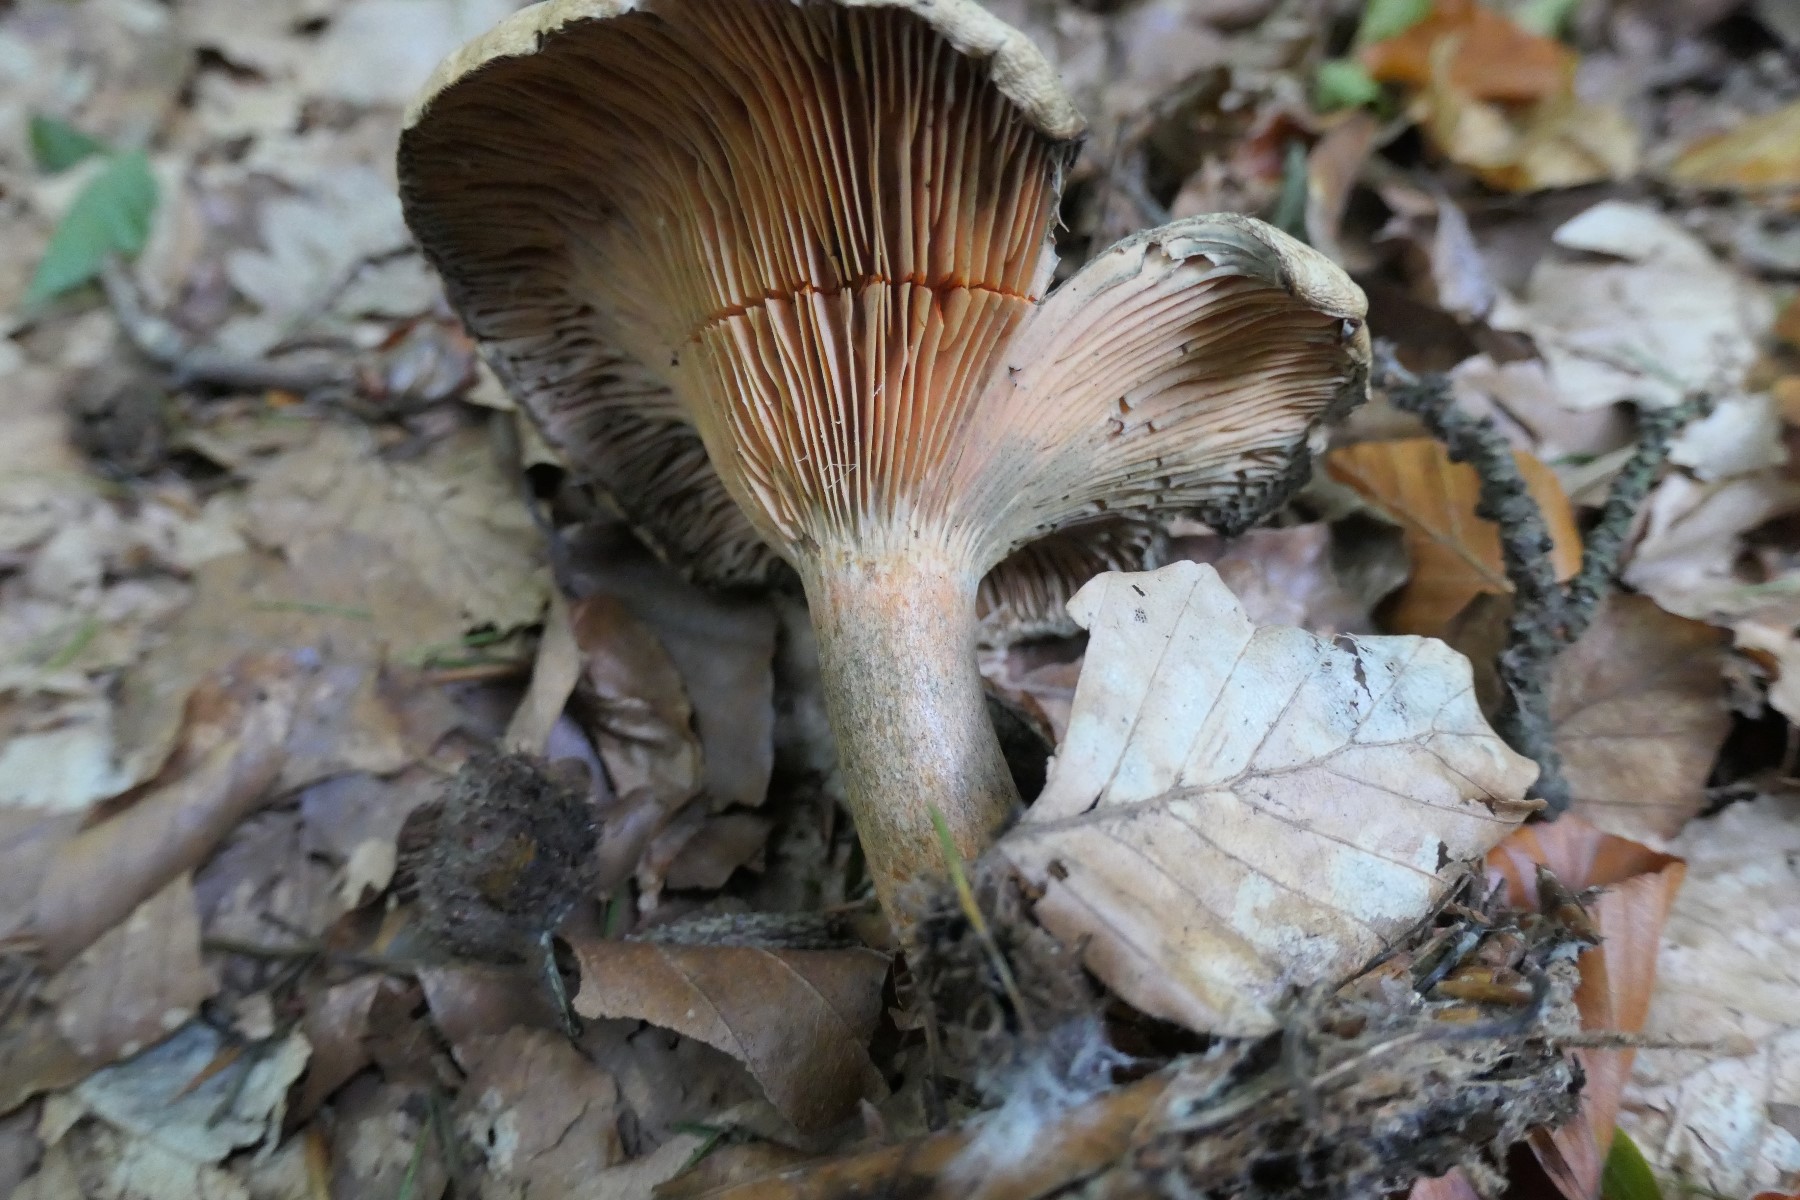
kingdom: Fungi
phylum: Basidiomycota
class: Agaricomycetes
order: Russulales
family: Russulaceae
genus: Lactarius
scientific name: Lactarius deterrimus
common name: gran-mælkehat
